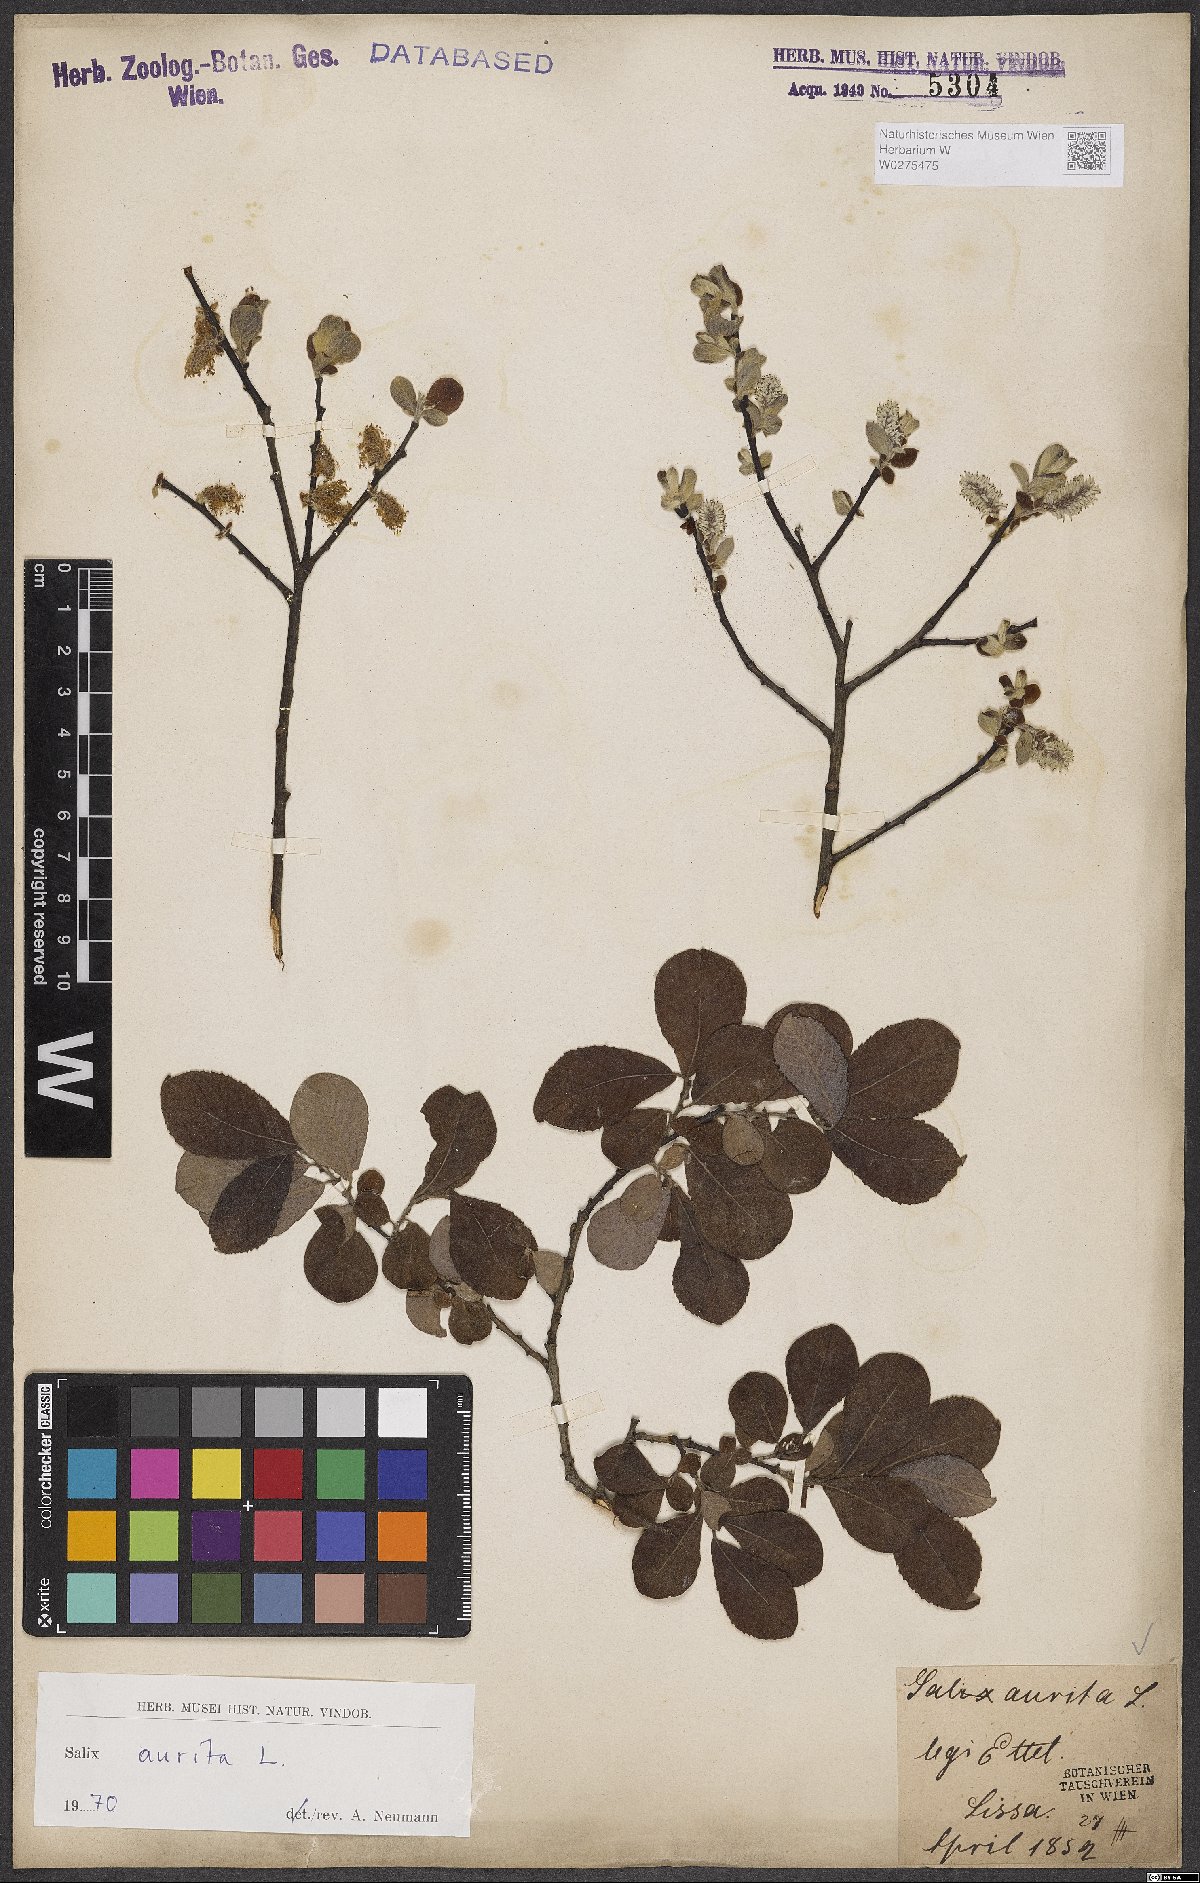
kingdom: Plantae
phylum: Tracheophyta
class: Magnoliopsida
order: Malpighiales
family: Salicaceae
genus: Salix
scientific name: Salix aurita
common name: Eared willow
